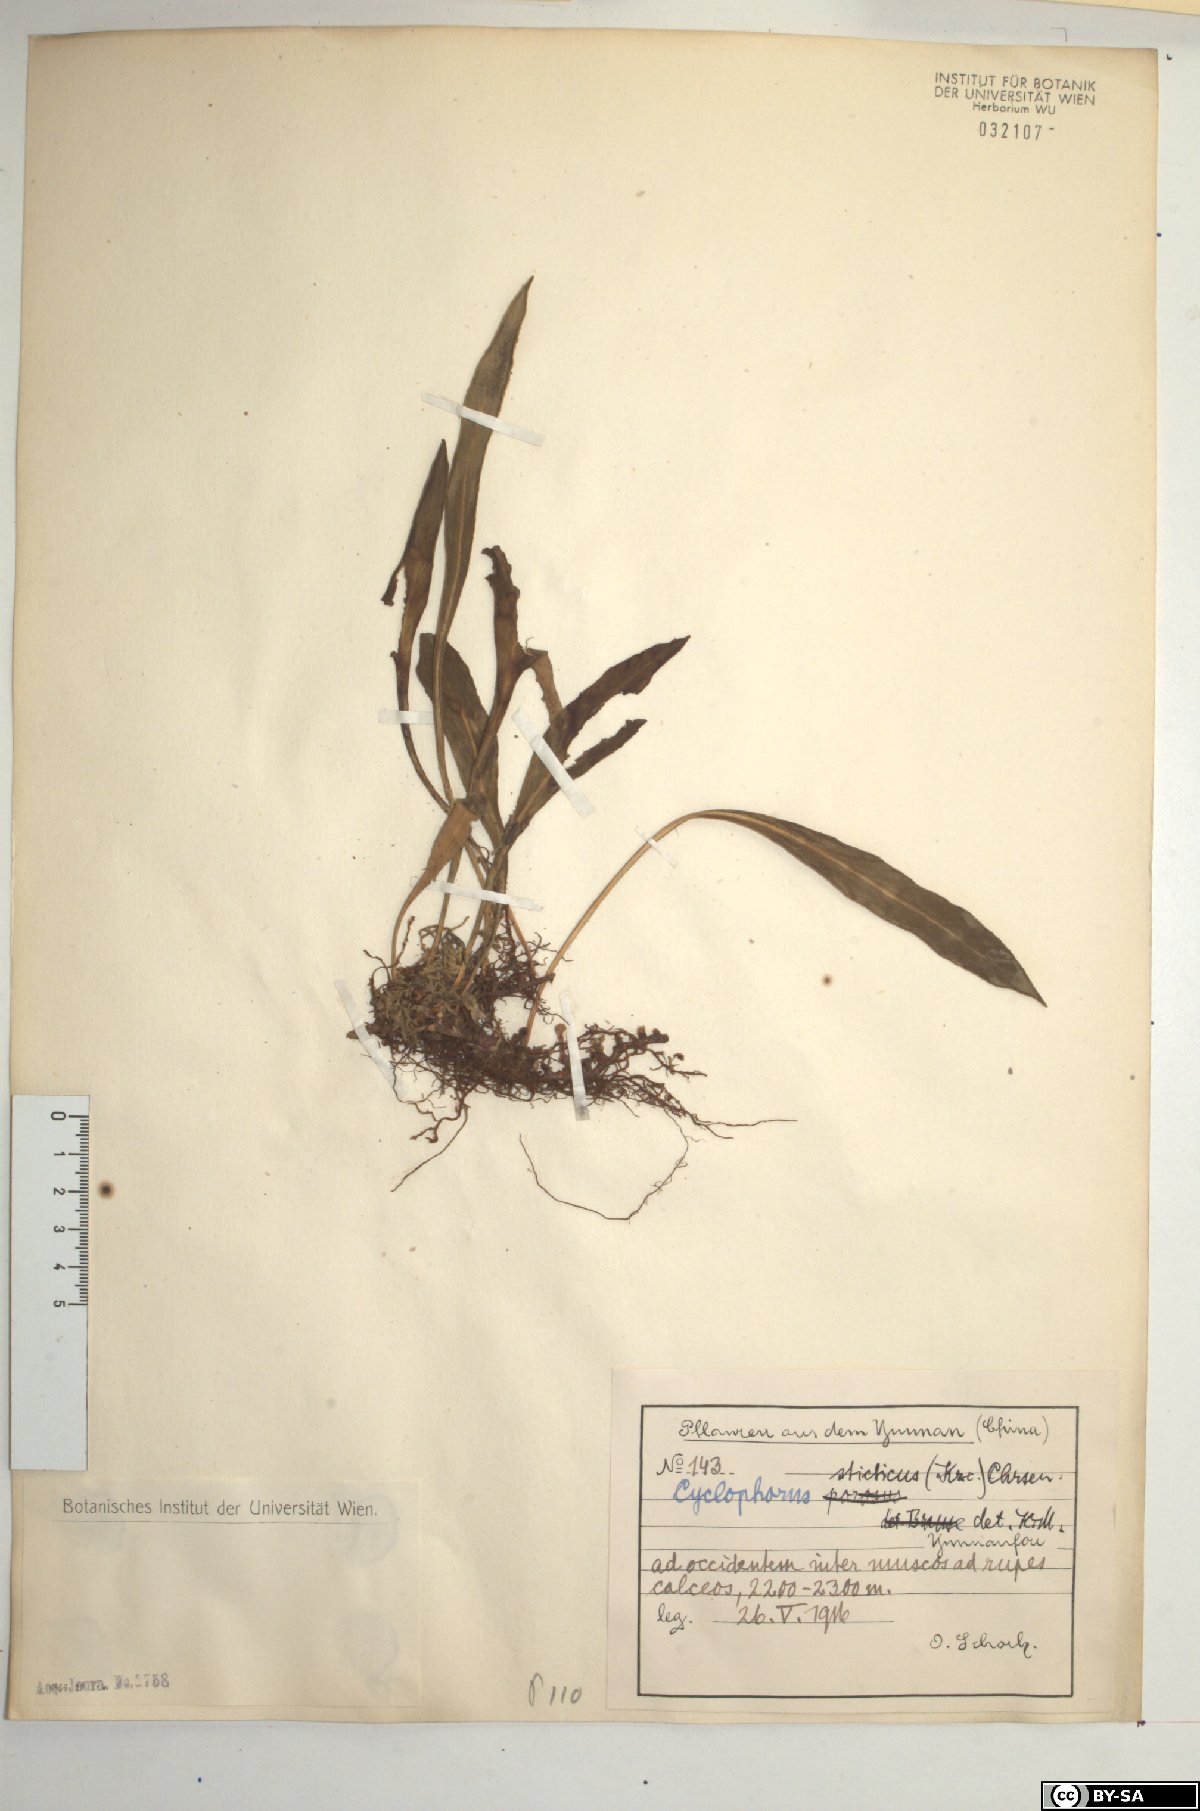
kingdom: Plantae
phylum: Tracheophyta
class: Polypodiopsida
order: Polypodiales
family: Polypodiaceae
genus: Pyrrosia
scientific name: Pyrrosia porosa
